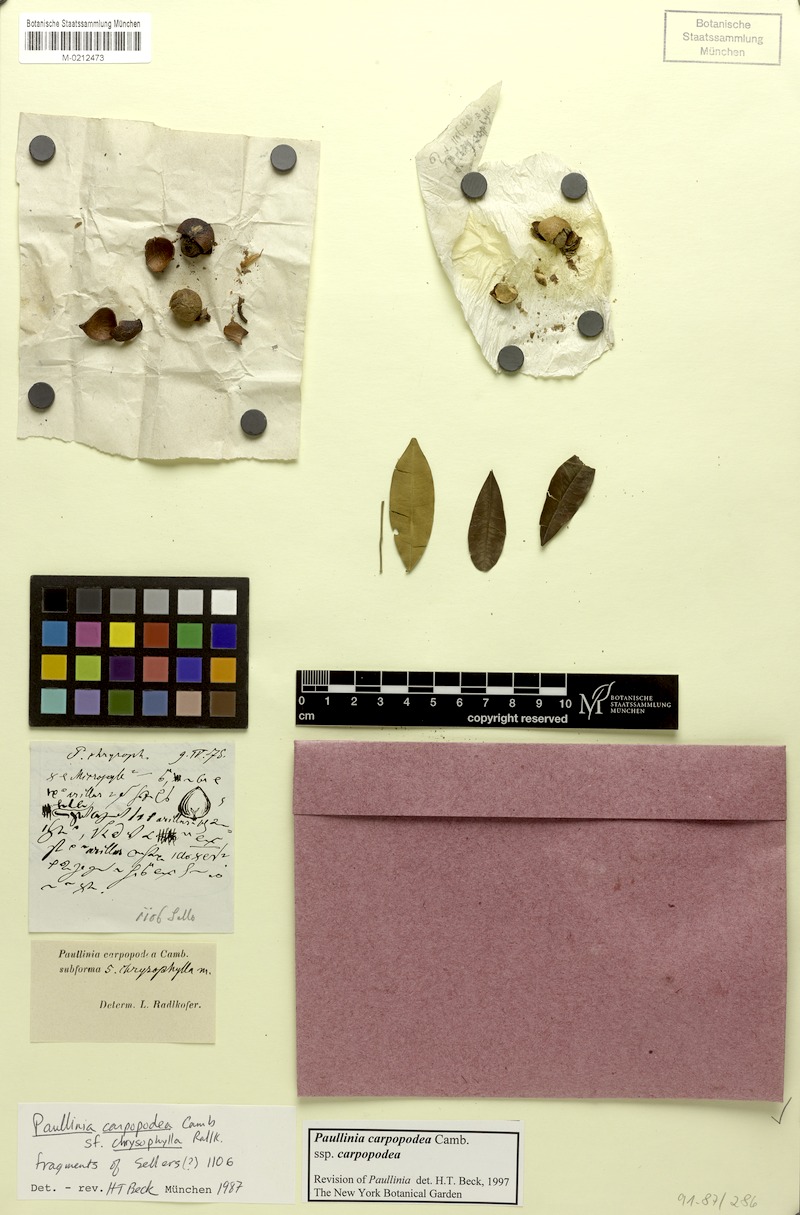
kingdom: Plantae
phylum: Tracheophyta
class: Magnoliopsida
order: Sapindales
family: Sapindaceae
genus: Paullinia
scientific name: Paullinia carpopoda
